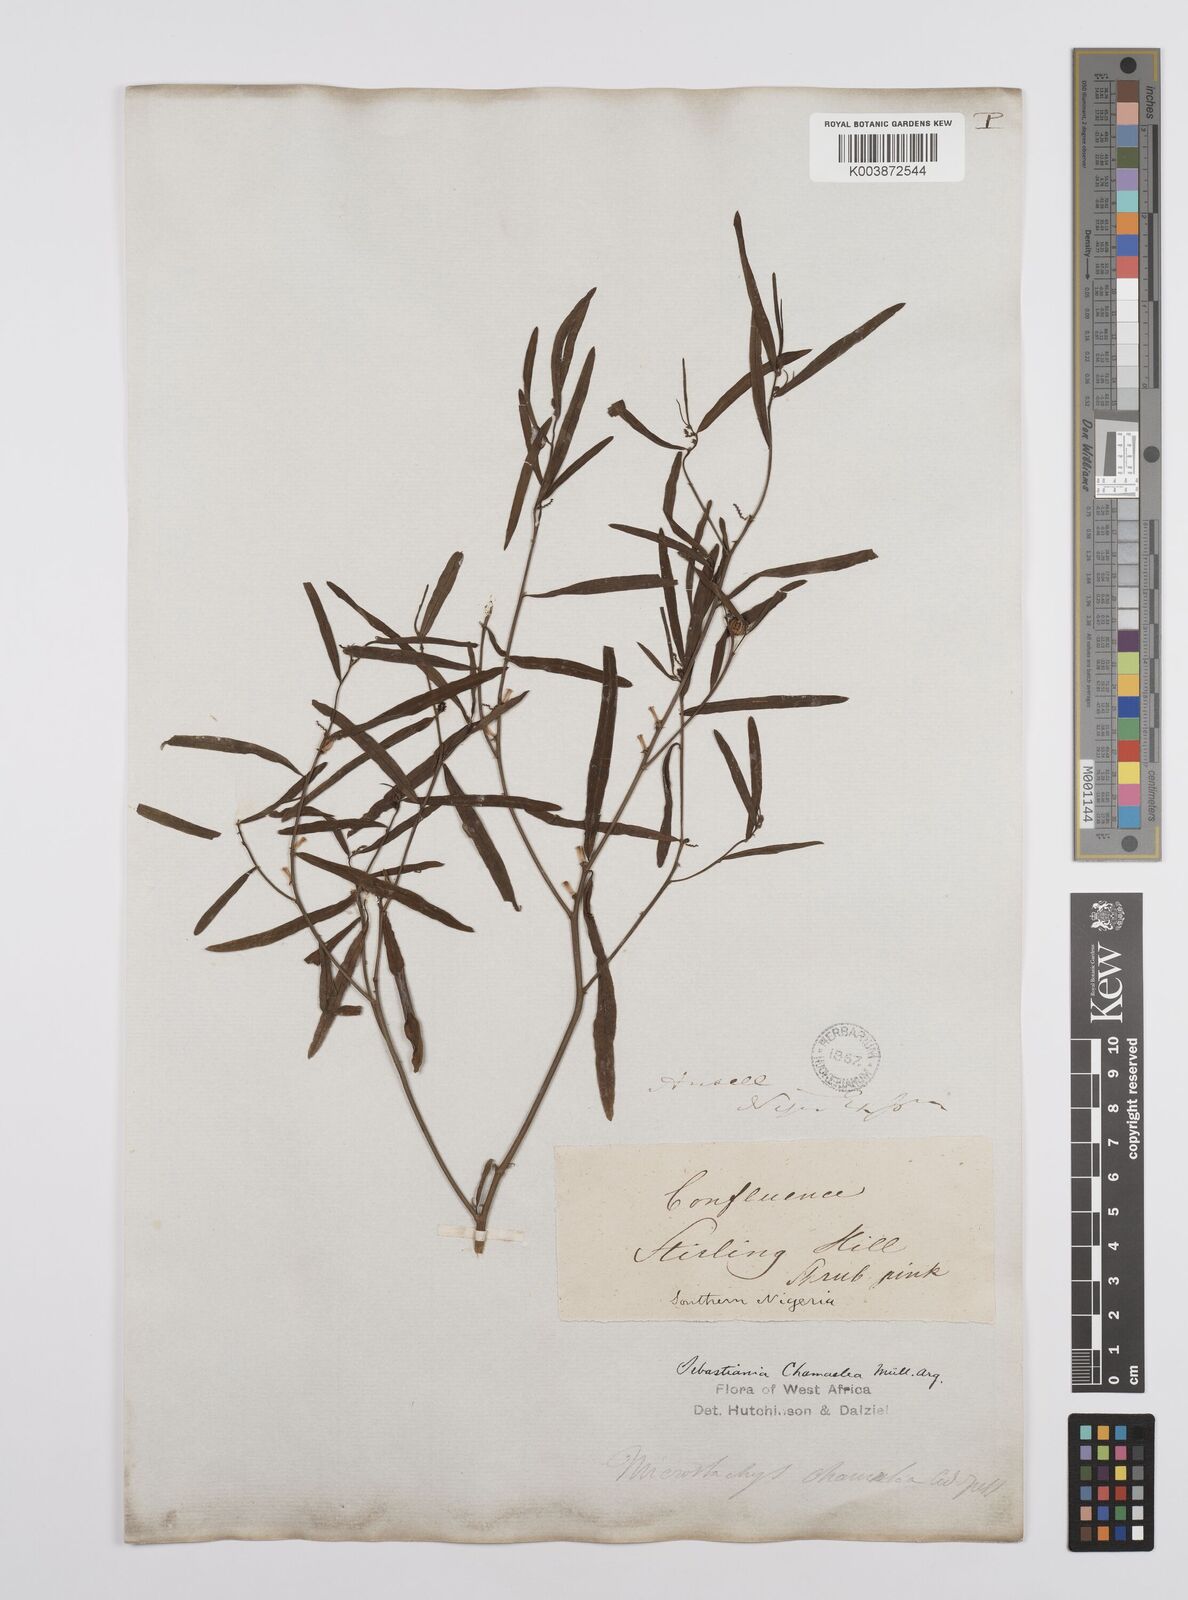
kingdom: Plantae
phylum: Tracheophyta
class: Magnoliopsida
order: Malpighiales
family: Euphorbiaceae
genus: Microstachys
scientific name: Microstachys chamaelea
